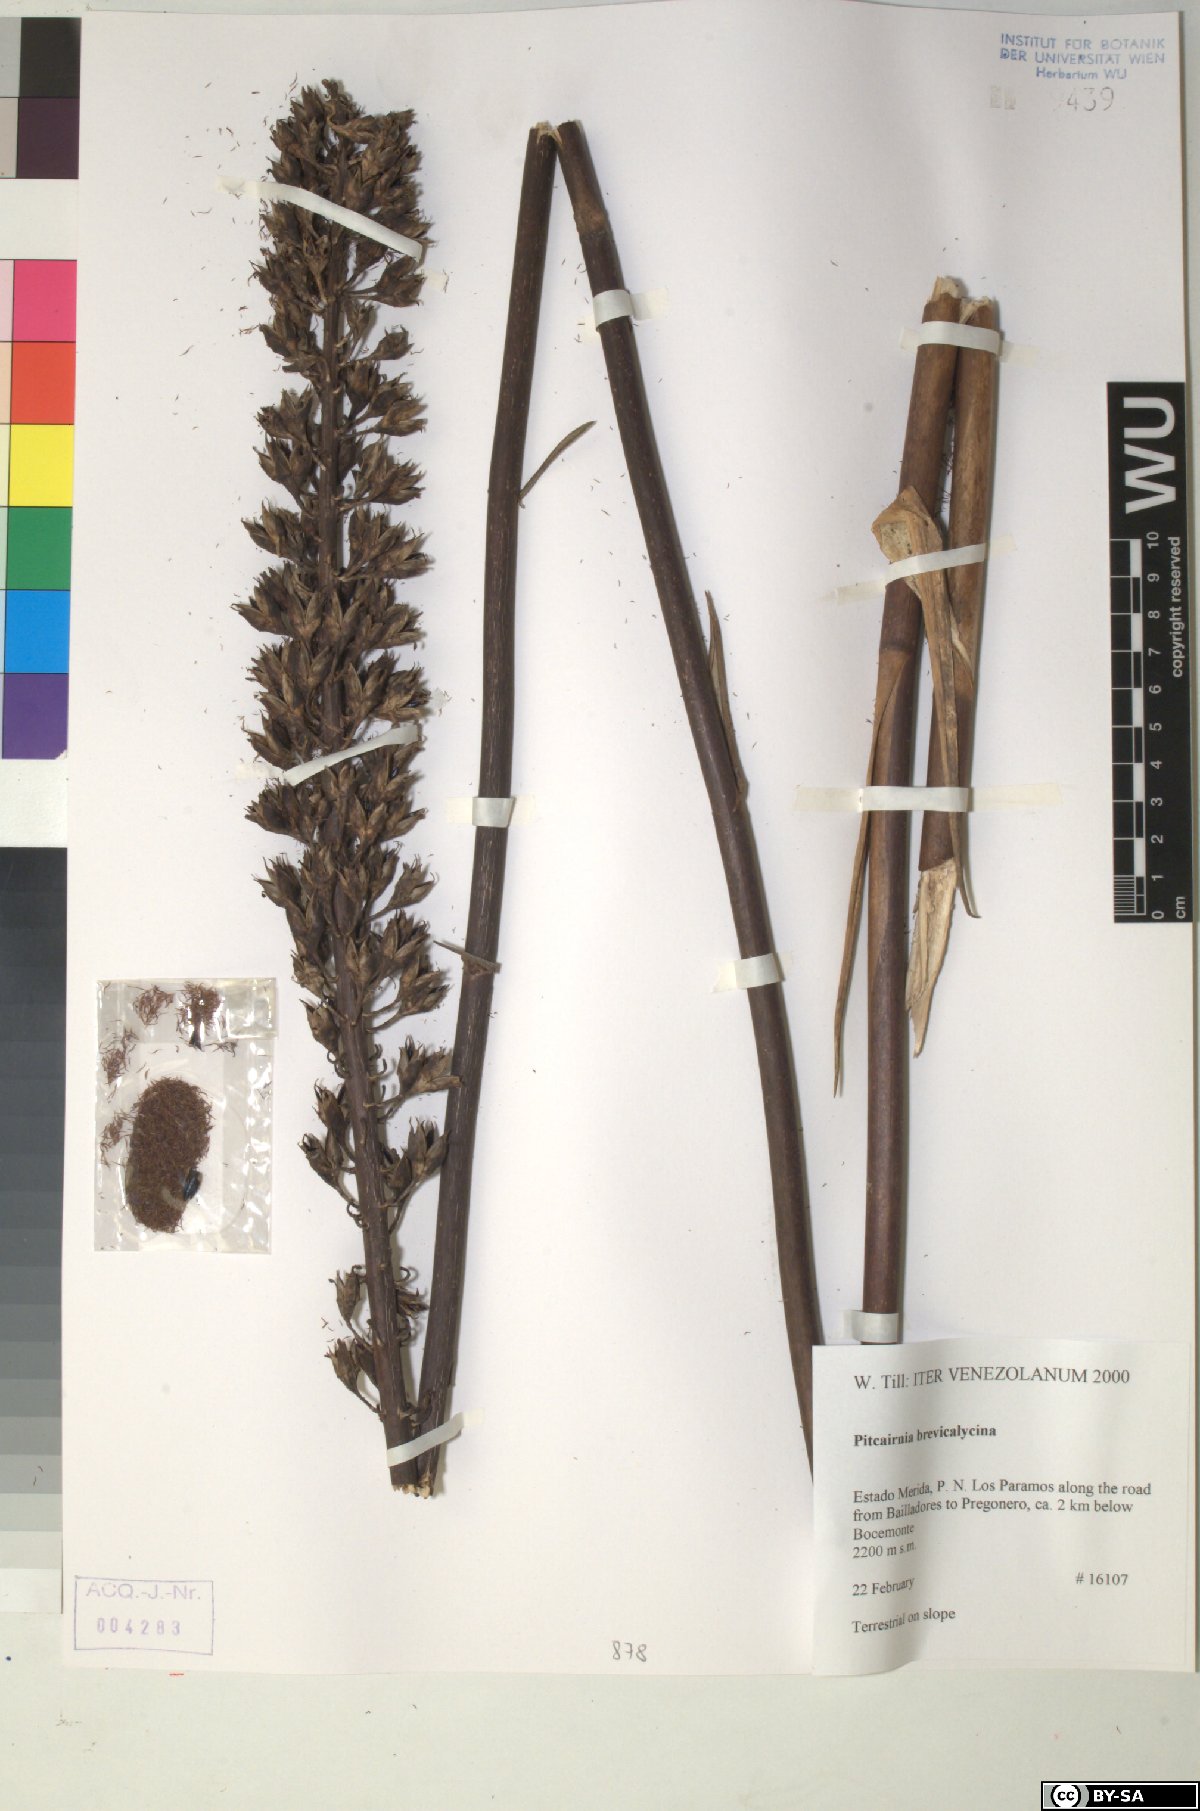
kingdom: Plantae
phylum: Tracheophyta
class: Liliopsida
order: Poales
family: Bromeliaceae
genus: Pitcairnia
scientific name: Pitcairnia brevicalycina
